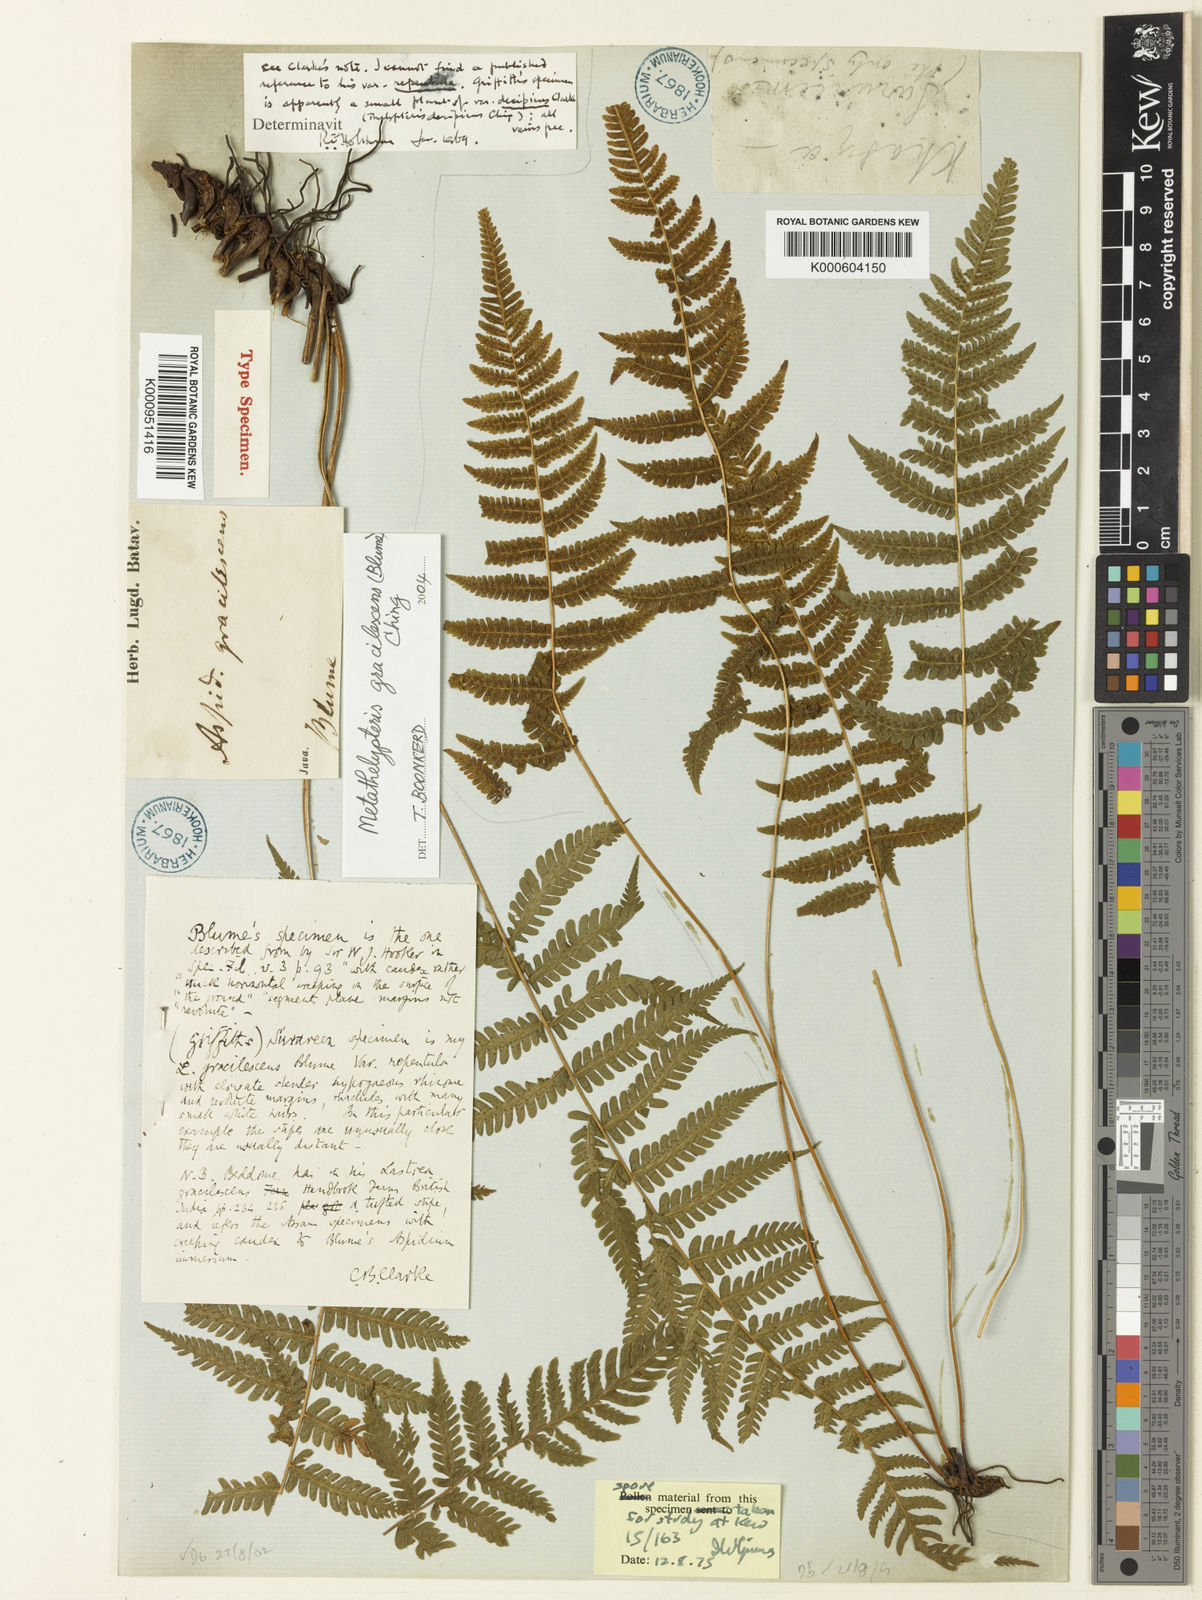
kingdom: Plantae
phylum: Tracheophyta
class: Polypodiopsida
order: Polypodiales
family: Thelypteridaceae
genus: Metathelypteris
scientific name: Metathelypteris gracilescens
